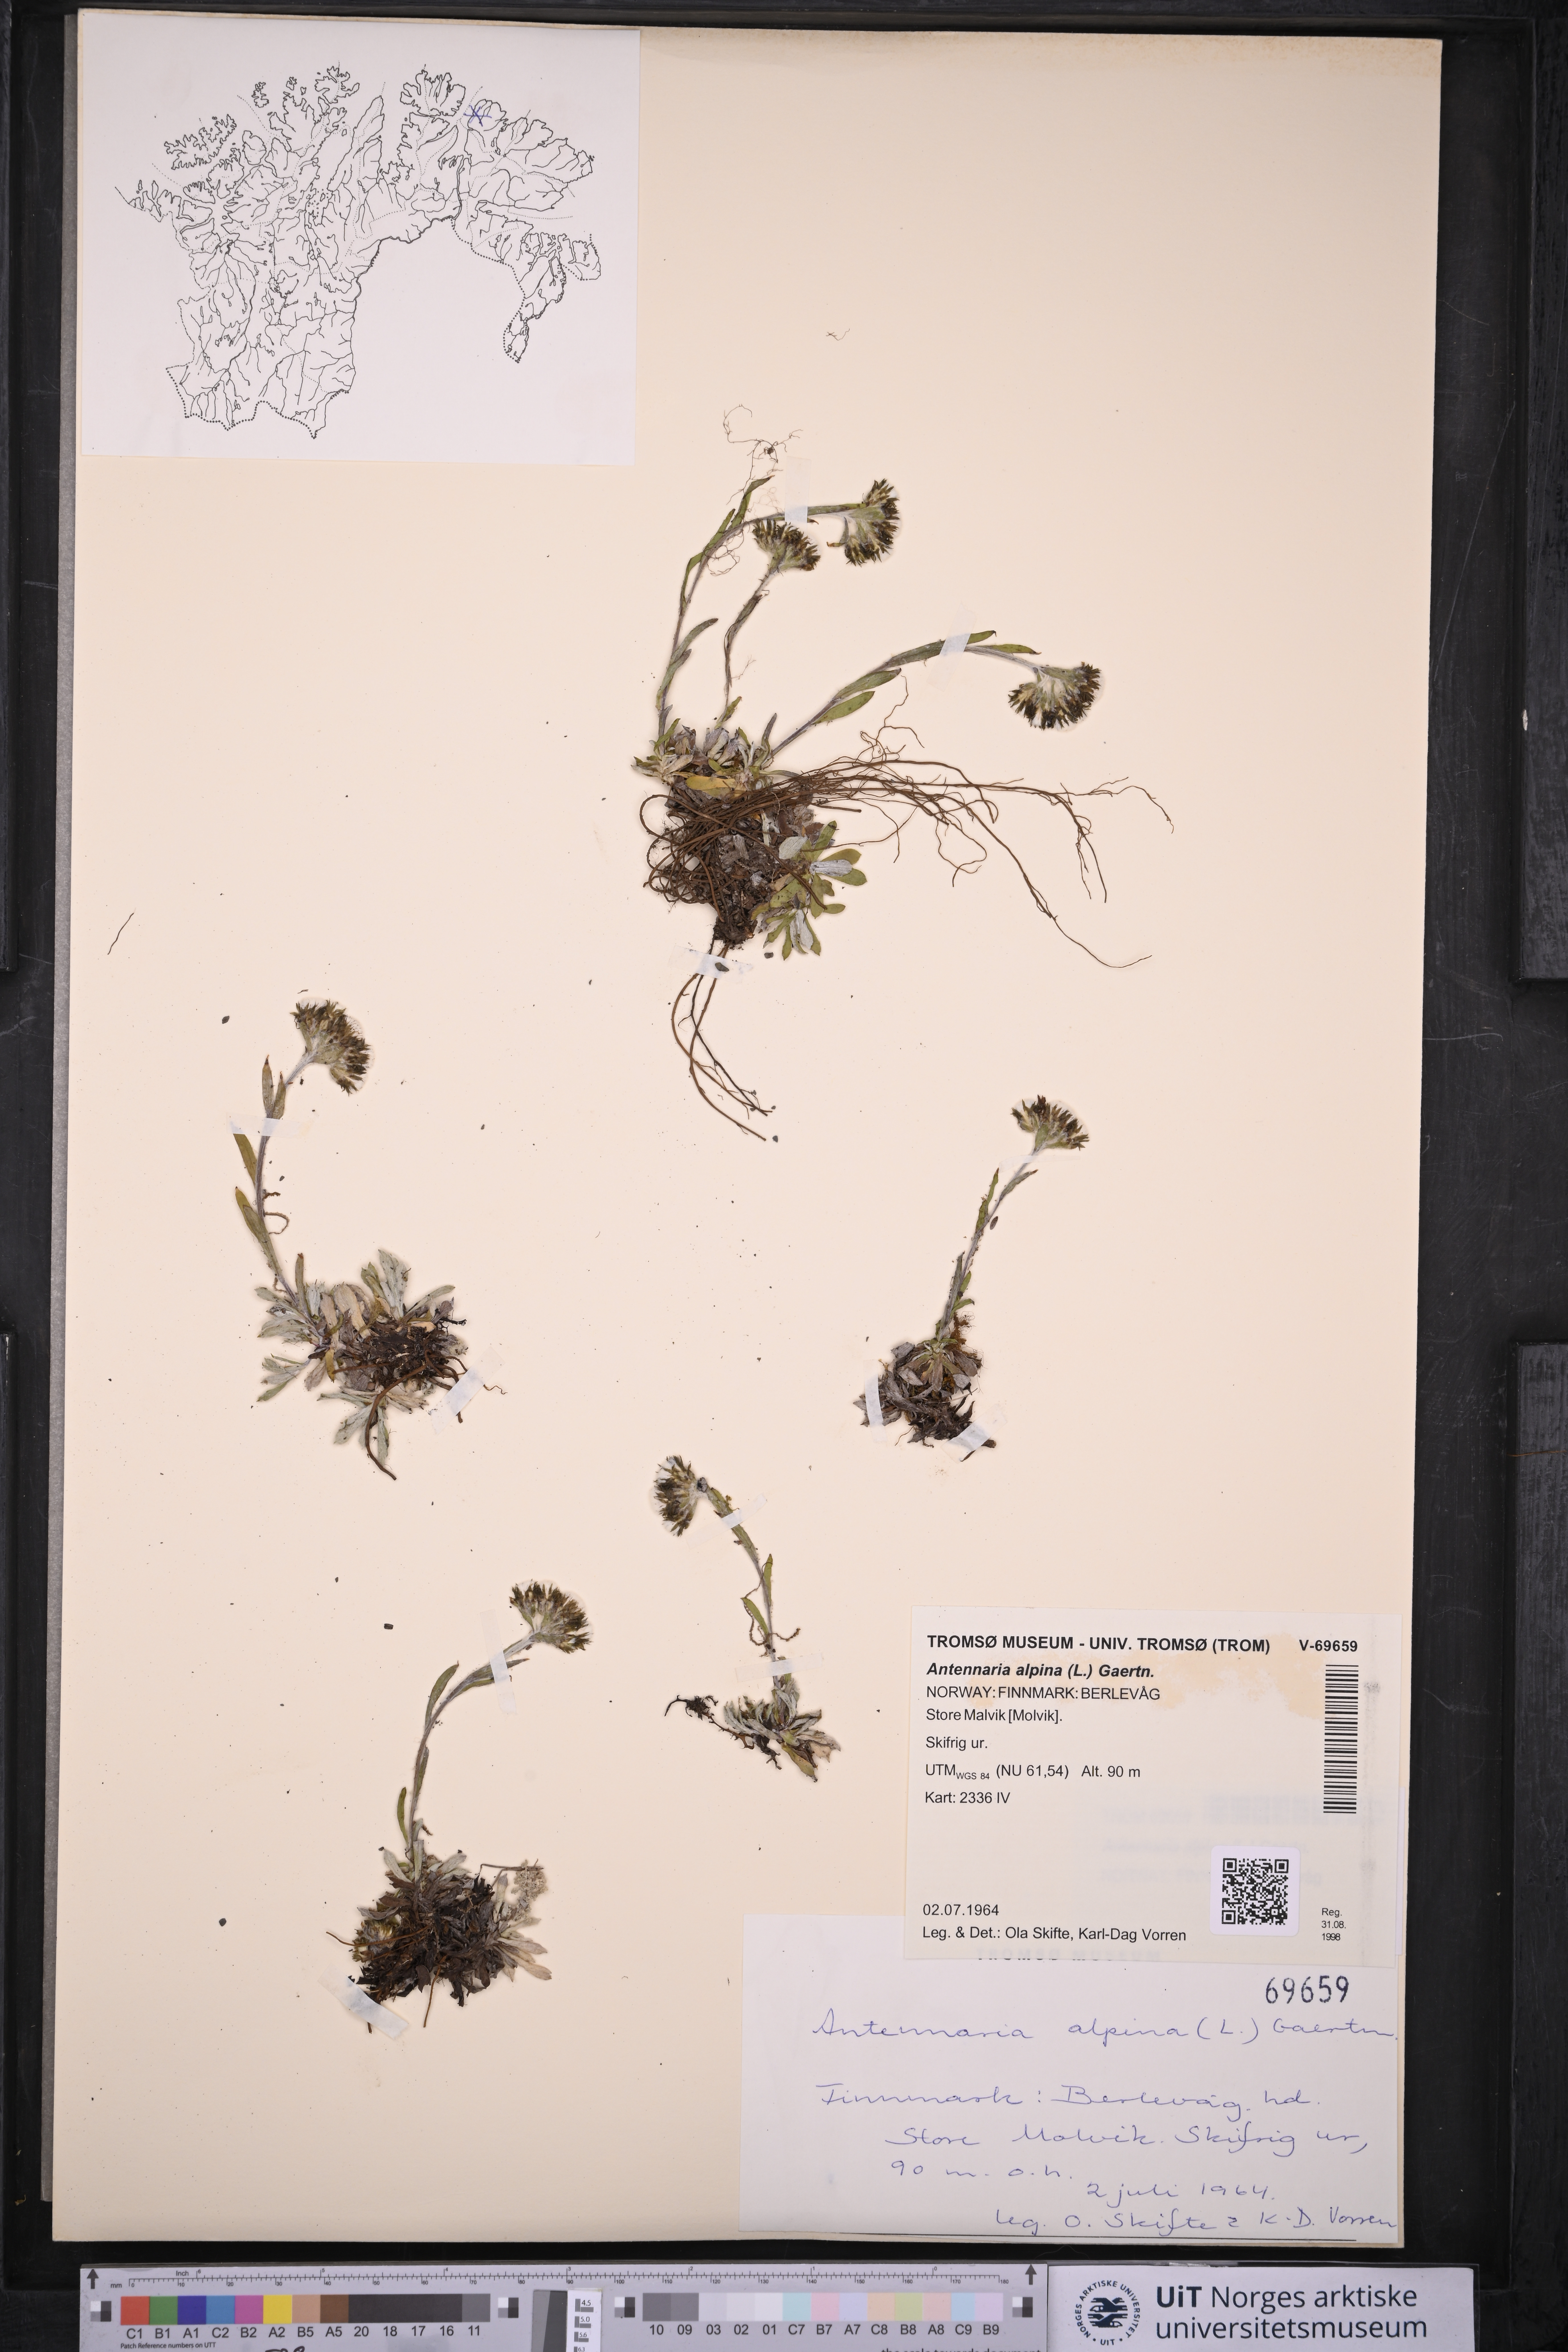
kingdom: Plantae
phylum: Tracheophyta
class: Magnoliopsida
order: Asterales
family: Asteraceae
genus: Antennaria
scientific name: Antennaria alpina
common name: Alpine pussytoes
